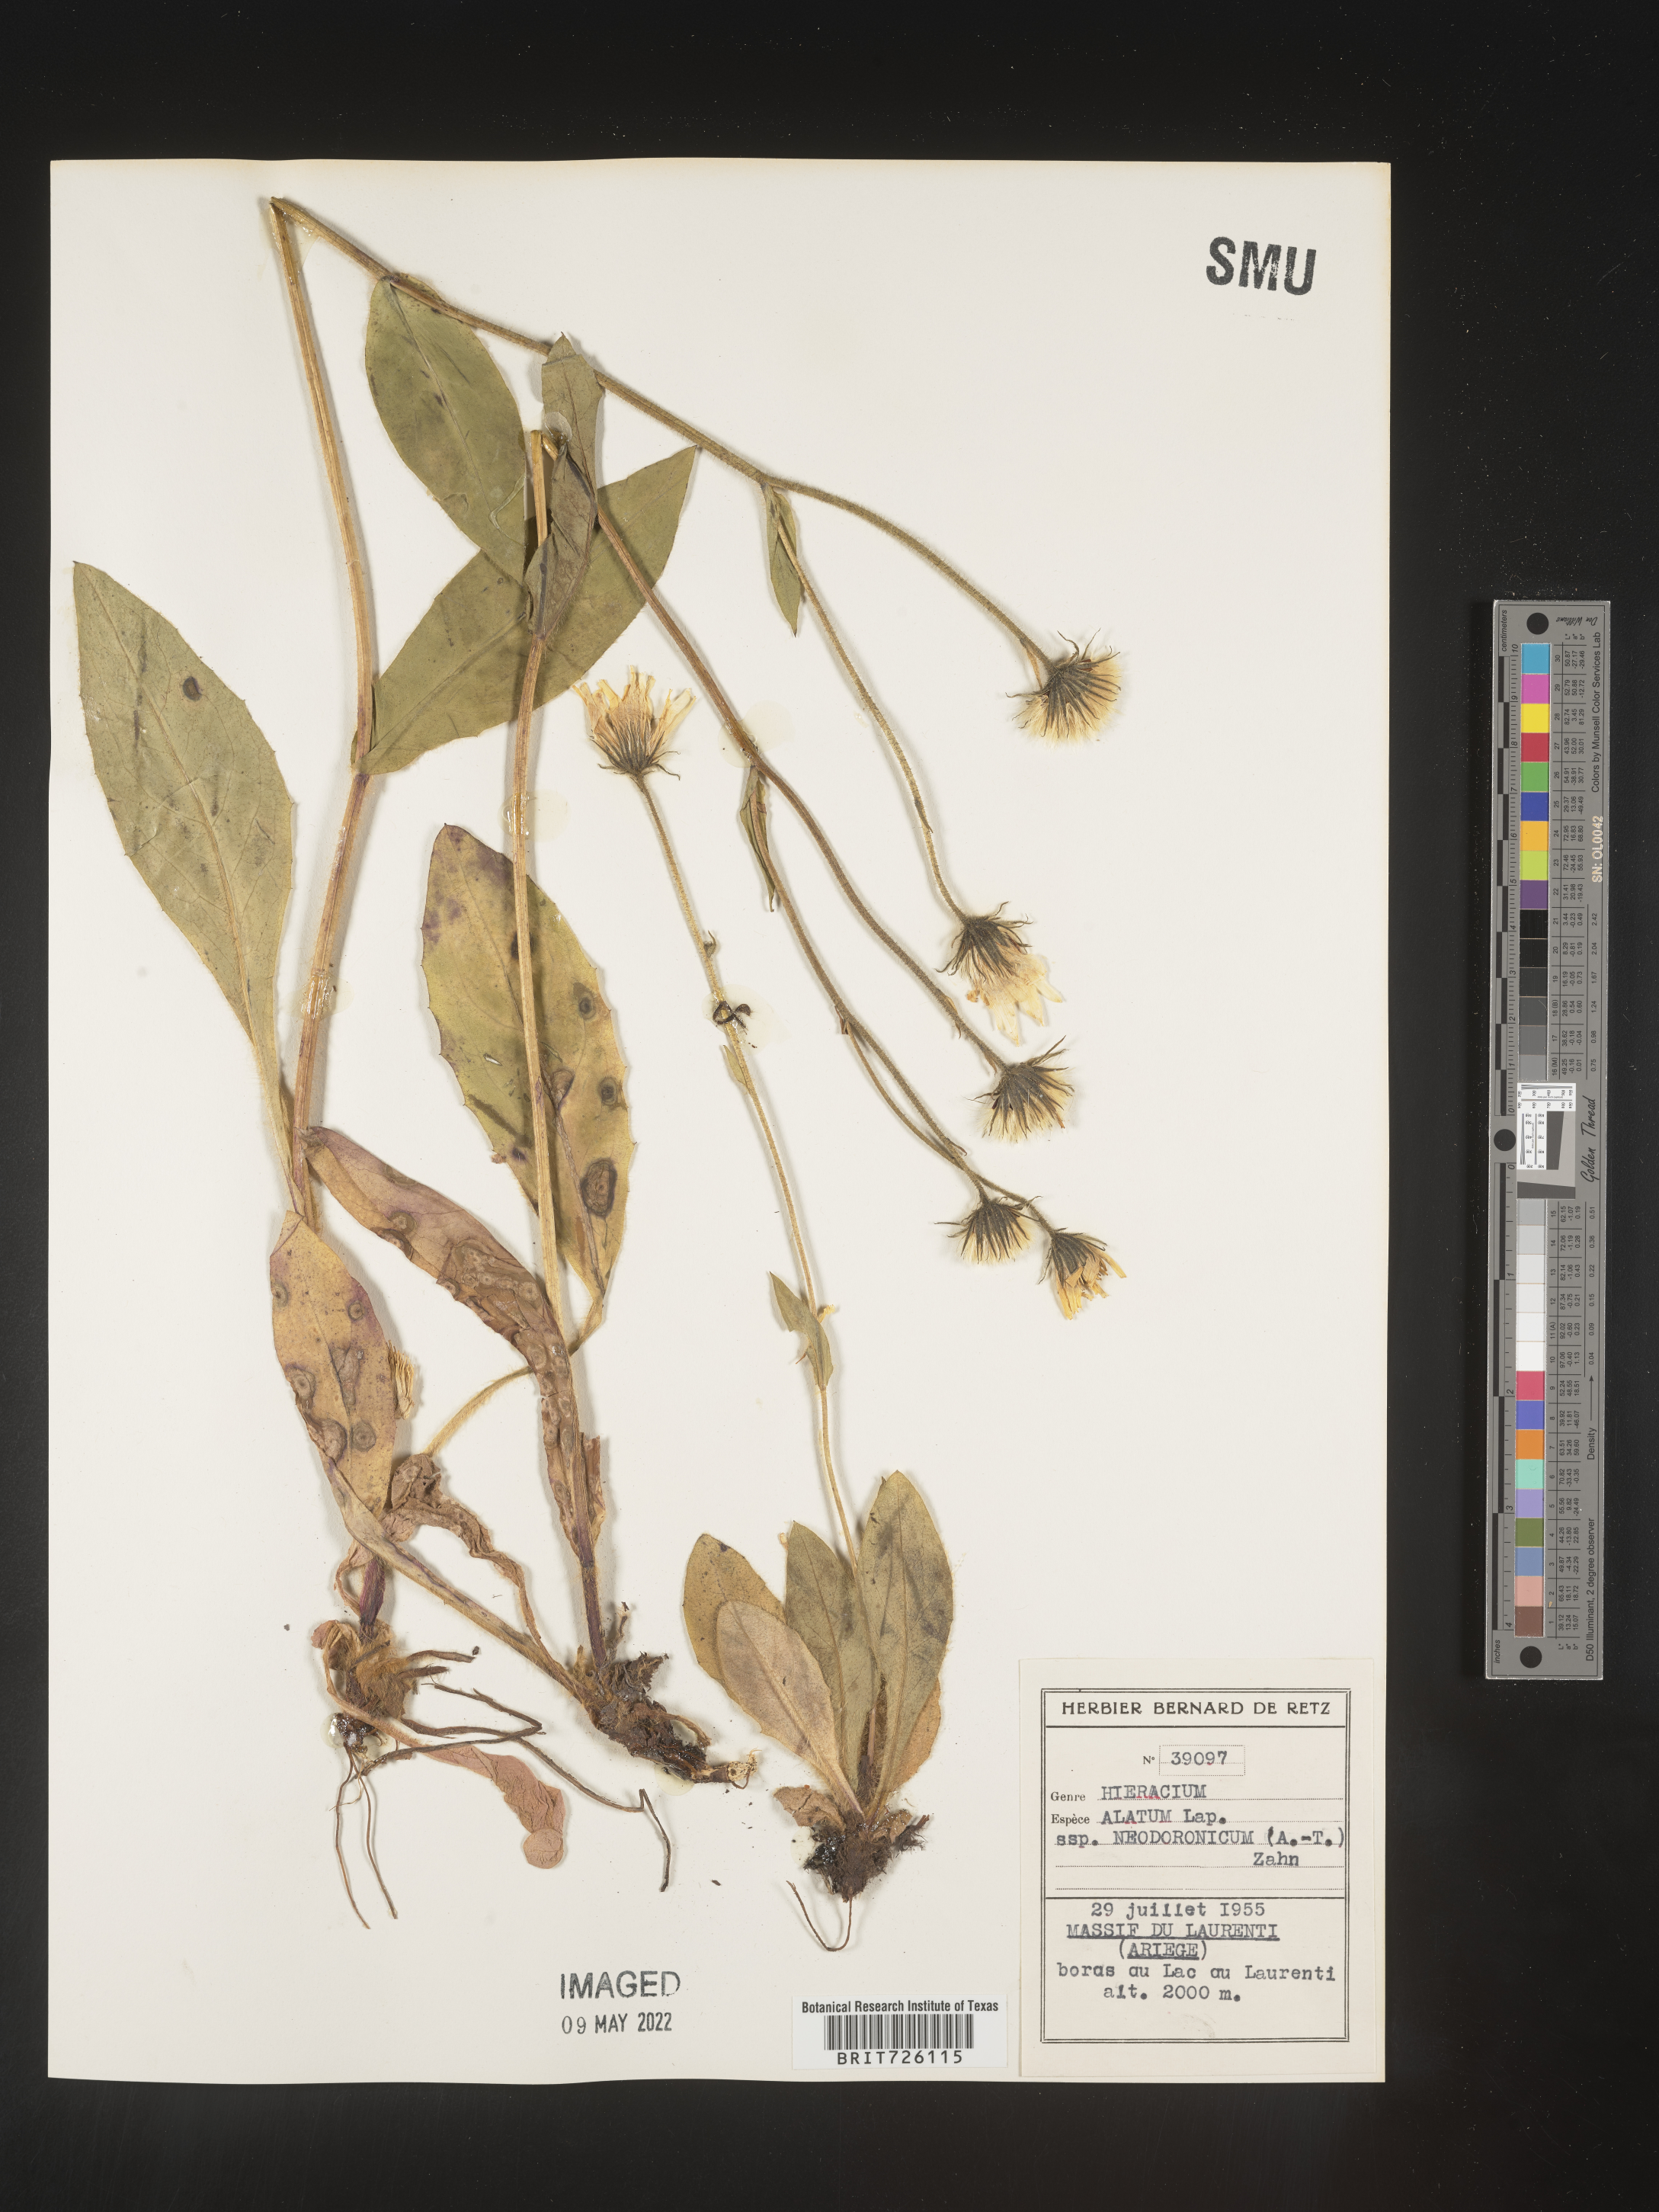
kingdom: Plantae
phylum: Tracheophyta
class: Magnoliopsida
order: Asterales
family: Asteraceae
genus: Hieracium
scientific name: Hieracium
